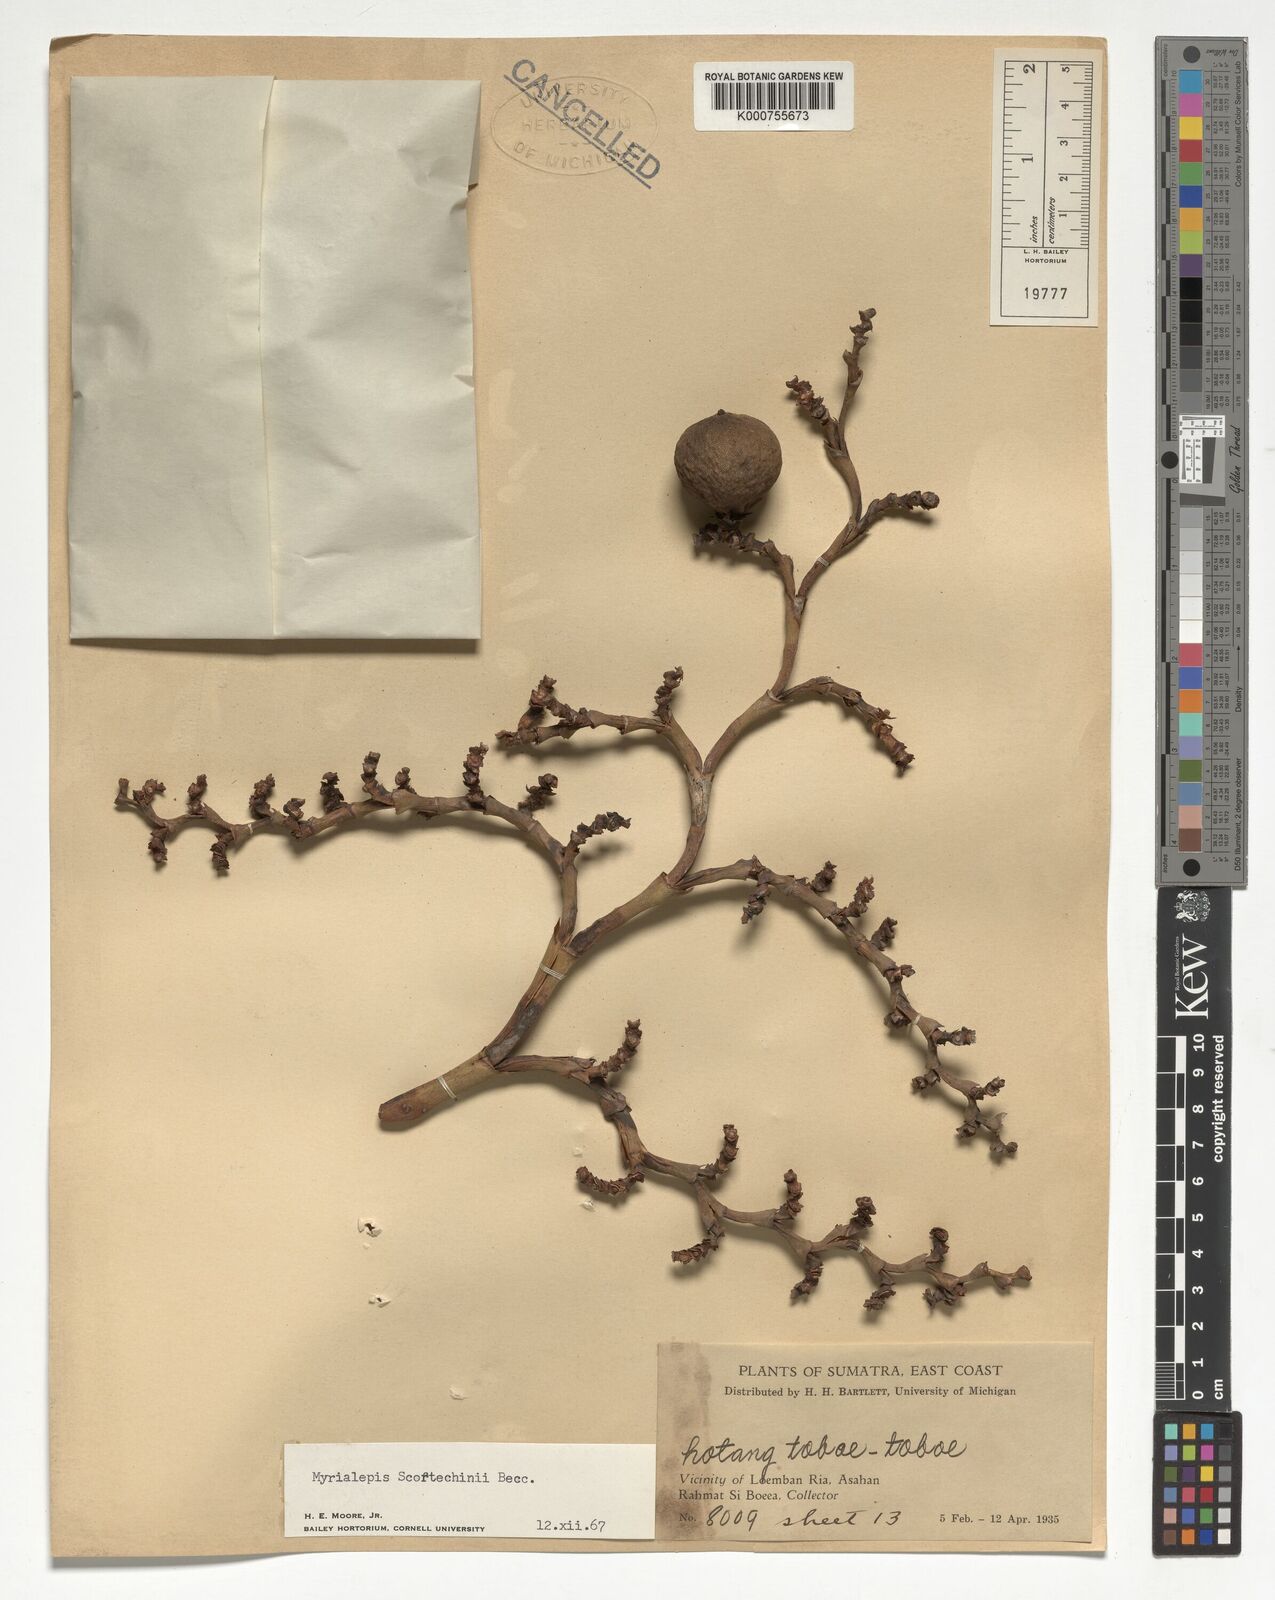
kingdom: Plantae
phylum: Tracheophyta
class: Liliopsida
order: Arecales
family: Arecaceae
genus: Myrialepis
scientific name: Myrialepis paradoxa
